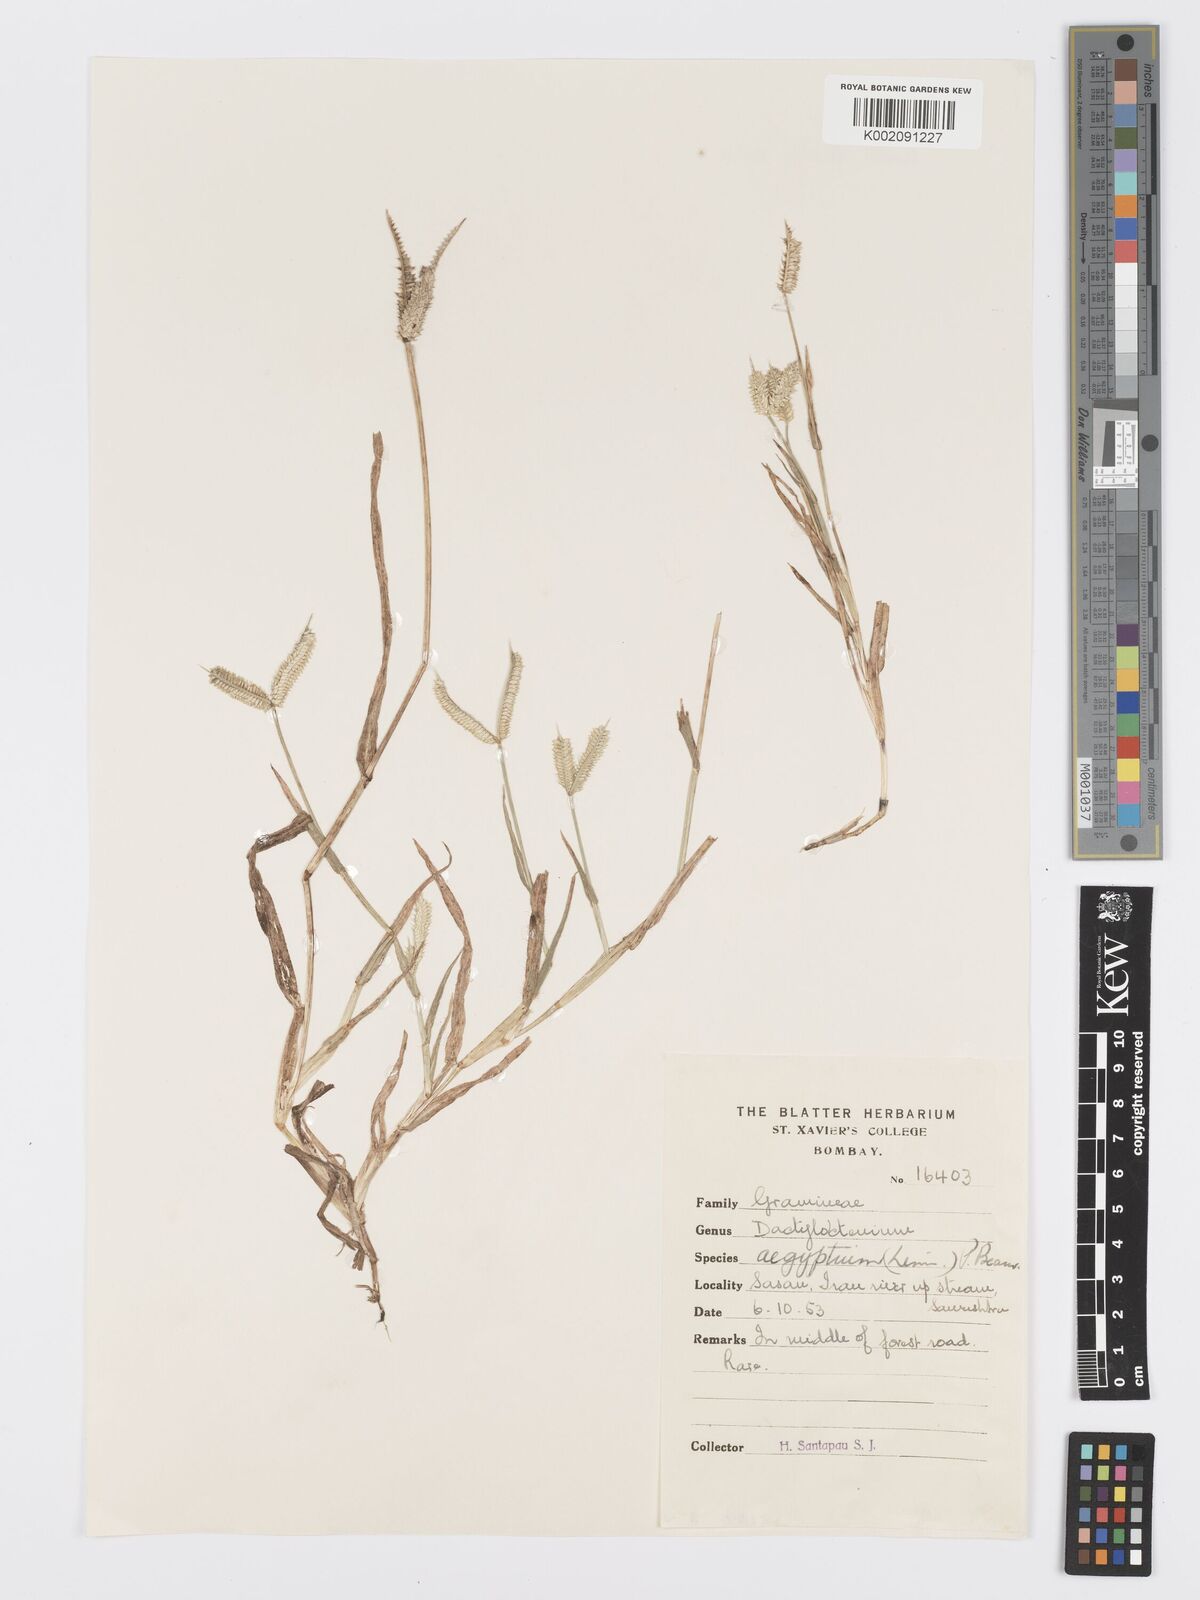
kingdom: Plantae
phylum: Tracheophyta
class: Liliopsida
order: Poales
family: Poaceae
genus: Dactyloctenium
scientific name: Dactyloctenium aegyptium
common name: Egyptian grass
